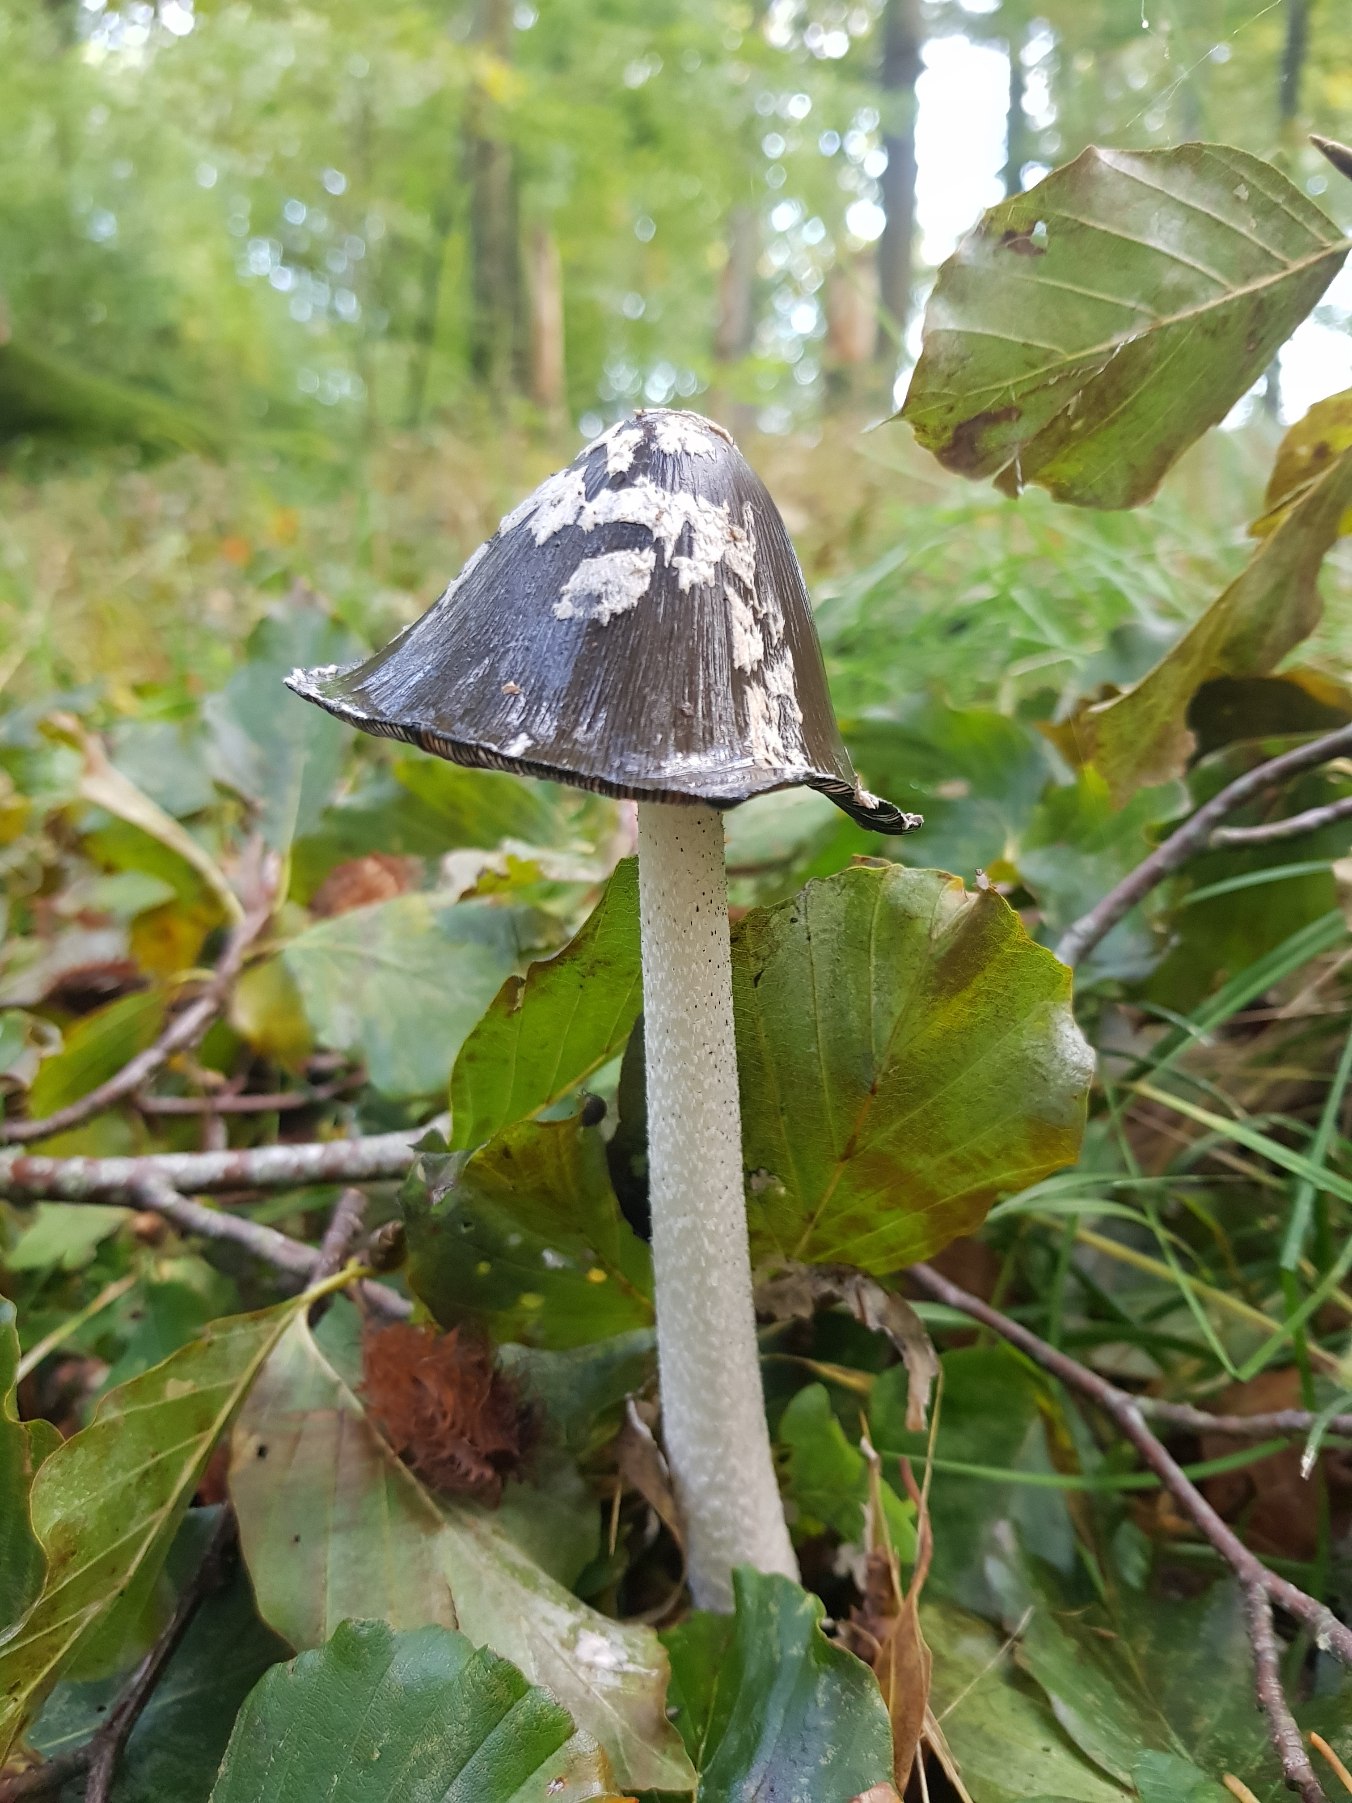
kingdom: Fungi
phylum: Basidiomycota
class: Agaricomycetes
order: Agaricales
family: Psathyrellaceae
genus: Coprinopsis
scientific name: Coprinopsis picacea
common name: Skade-blækhat
